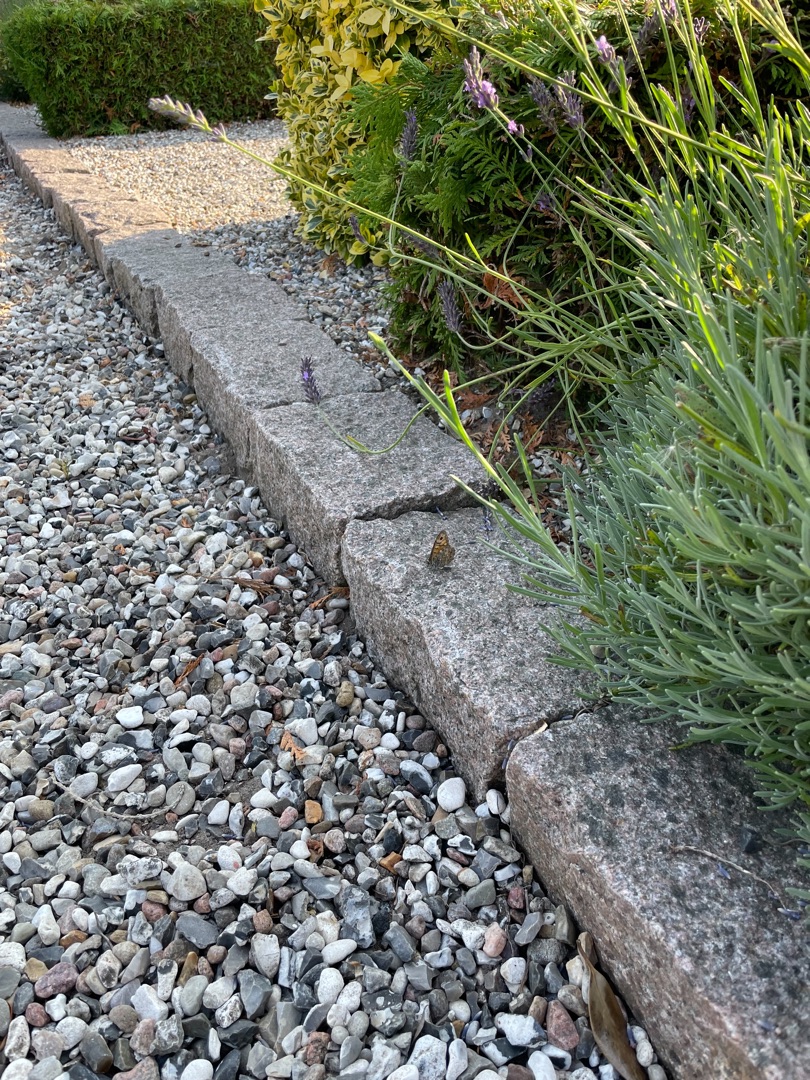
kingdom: Animalia
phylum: Arthropoda
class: Insecta
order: Lepidoptera
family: Nymphalidae
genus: Pararge
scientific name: Pararge Lasiommata megera
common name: Vejrandøje
